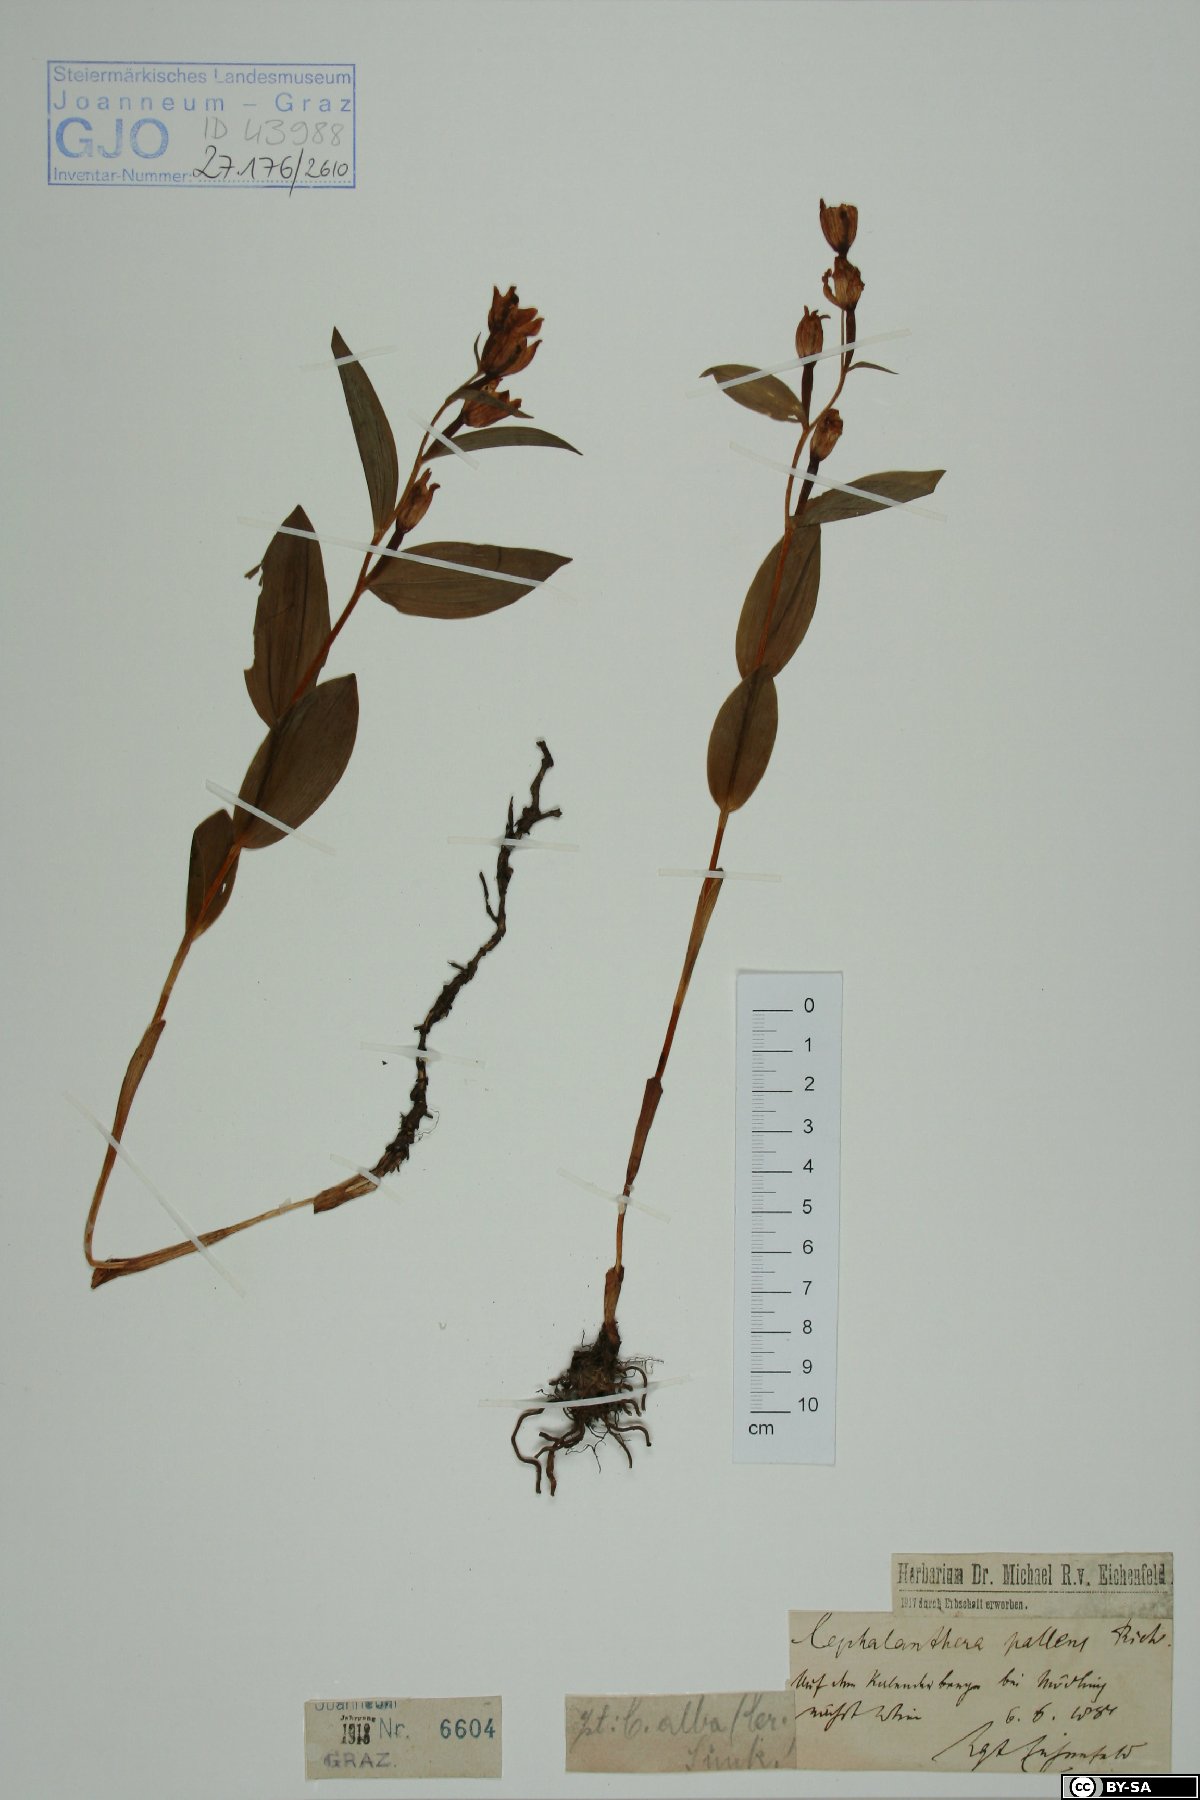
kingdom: Plantae
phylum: Tracheophyta
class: Liliopsida
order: Asparagales
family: Orchidaceae
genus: Cephalanthera
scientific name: Cephalanthera longifolia
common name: Narrow-leaved helleborine
